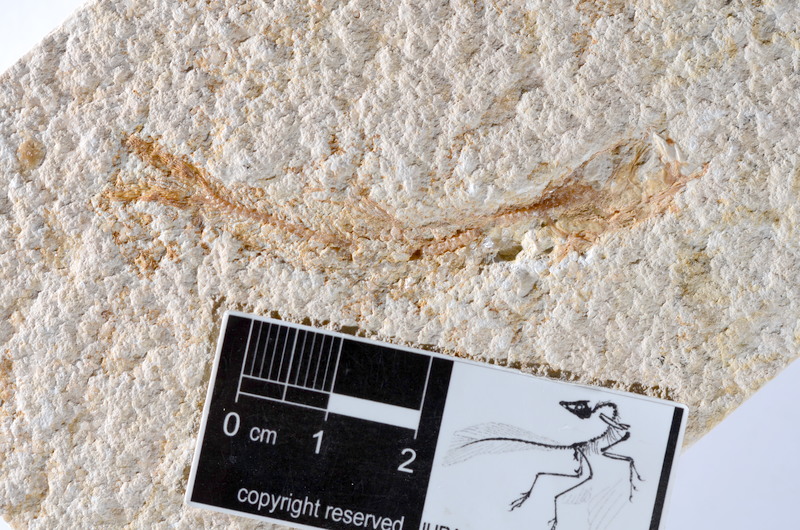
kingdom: Animalia
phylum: Chordata
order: Salmoniformes
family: Orthogonikleithridae
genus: Leptolepides
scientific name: Leptolepides sprattiformis
